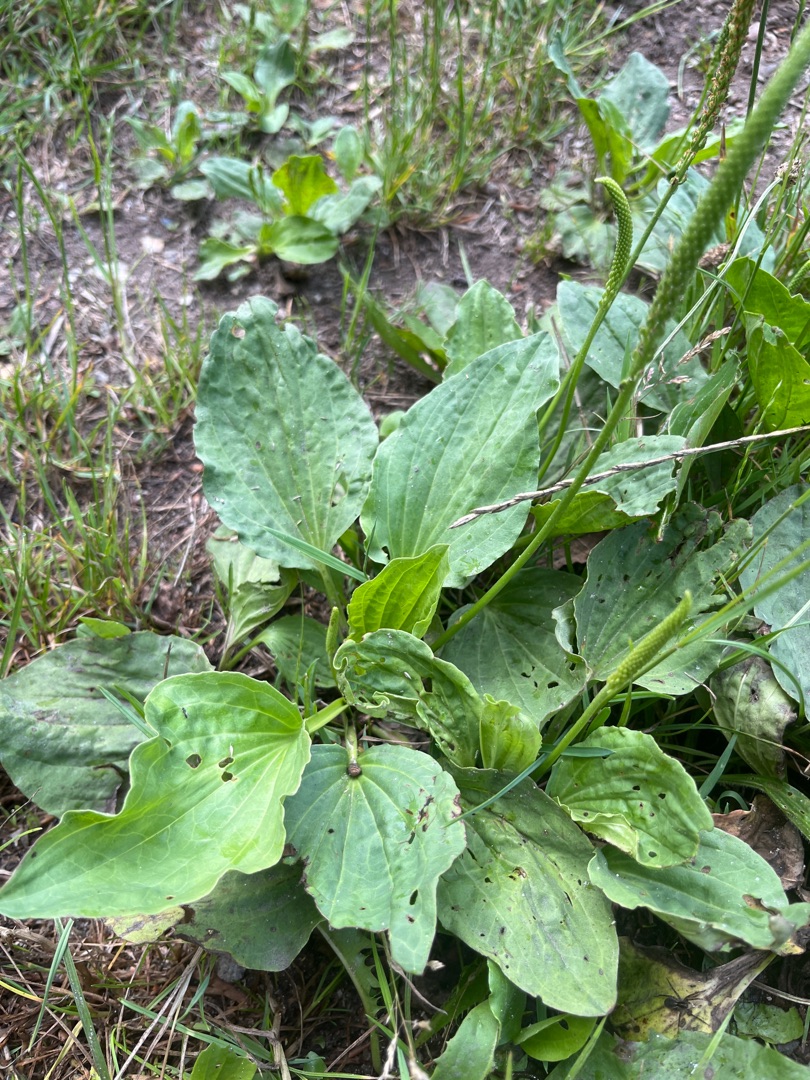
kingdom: Plantae
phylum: Tracheophyta
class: Magnoliopsida
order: Lamiales
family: Plantaginaceae
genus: Plantago
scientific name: Plantago major
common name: Glat vejbred
